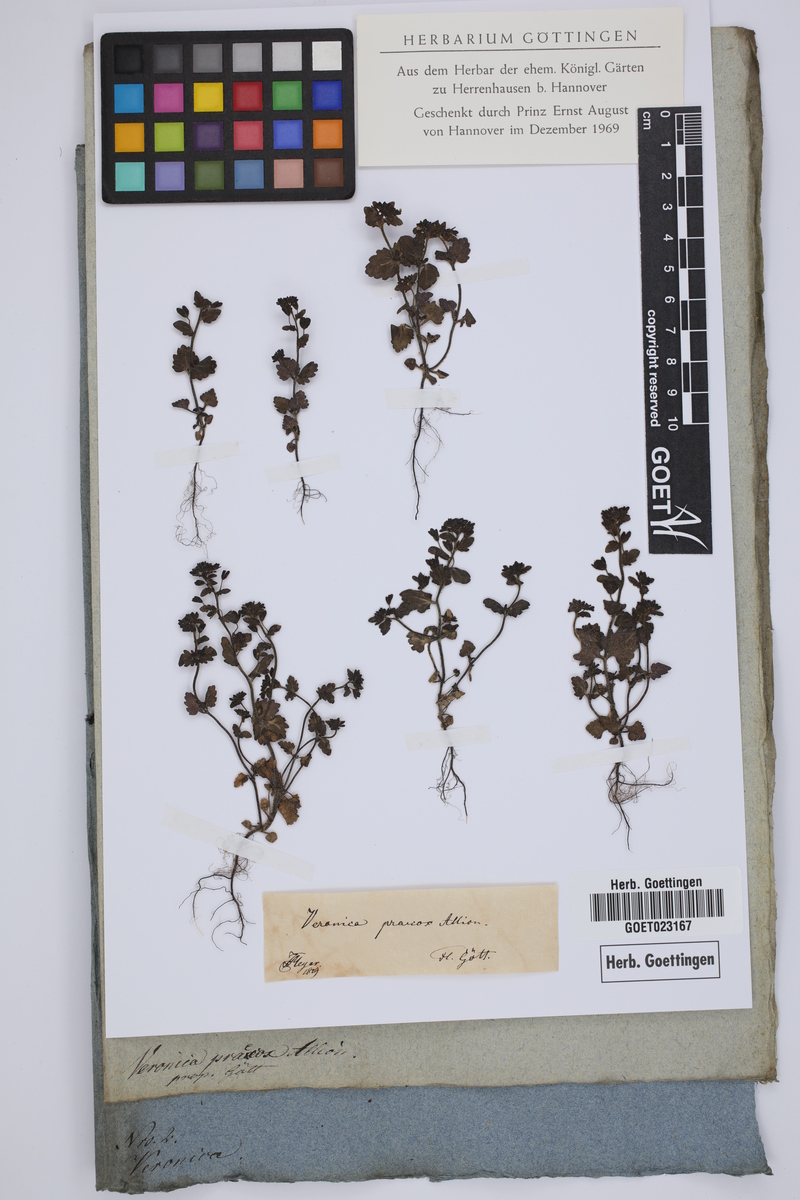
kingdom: Plantae
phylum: Tracheophyta
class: Magnoliopsida
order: Lamiales
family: Plantaginaceae
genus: Veronica
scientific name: Veronica praecox
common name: Breckland speedwell
